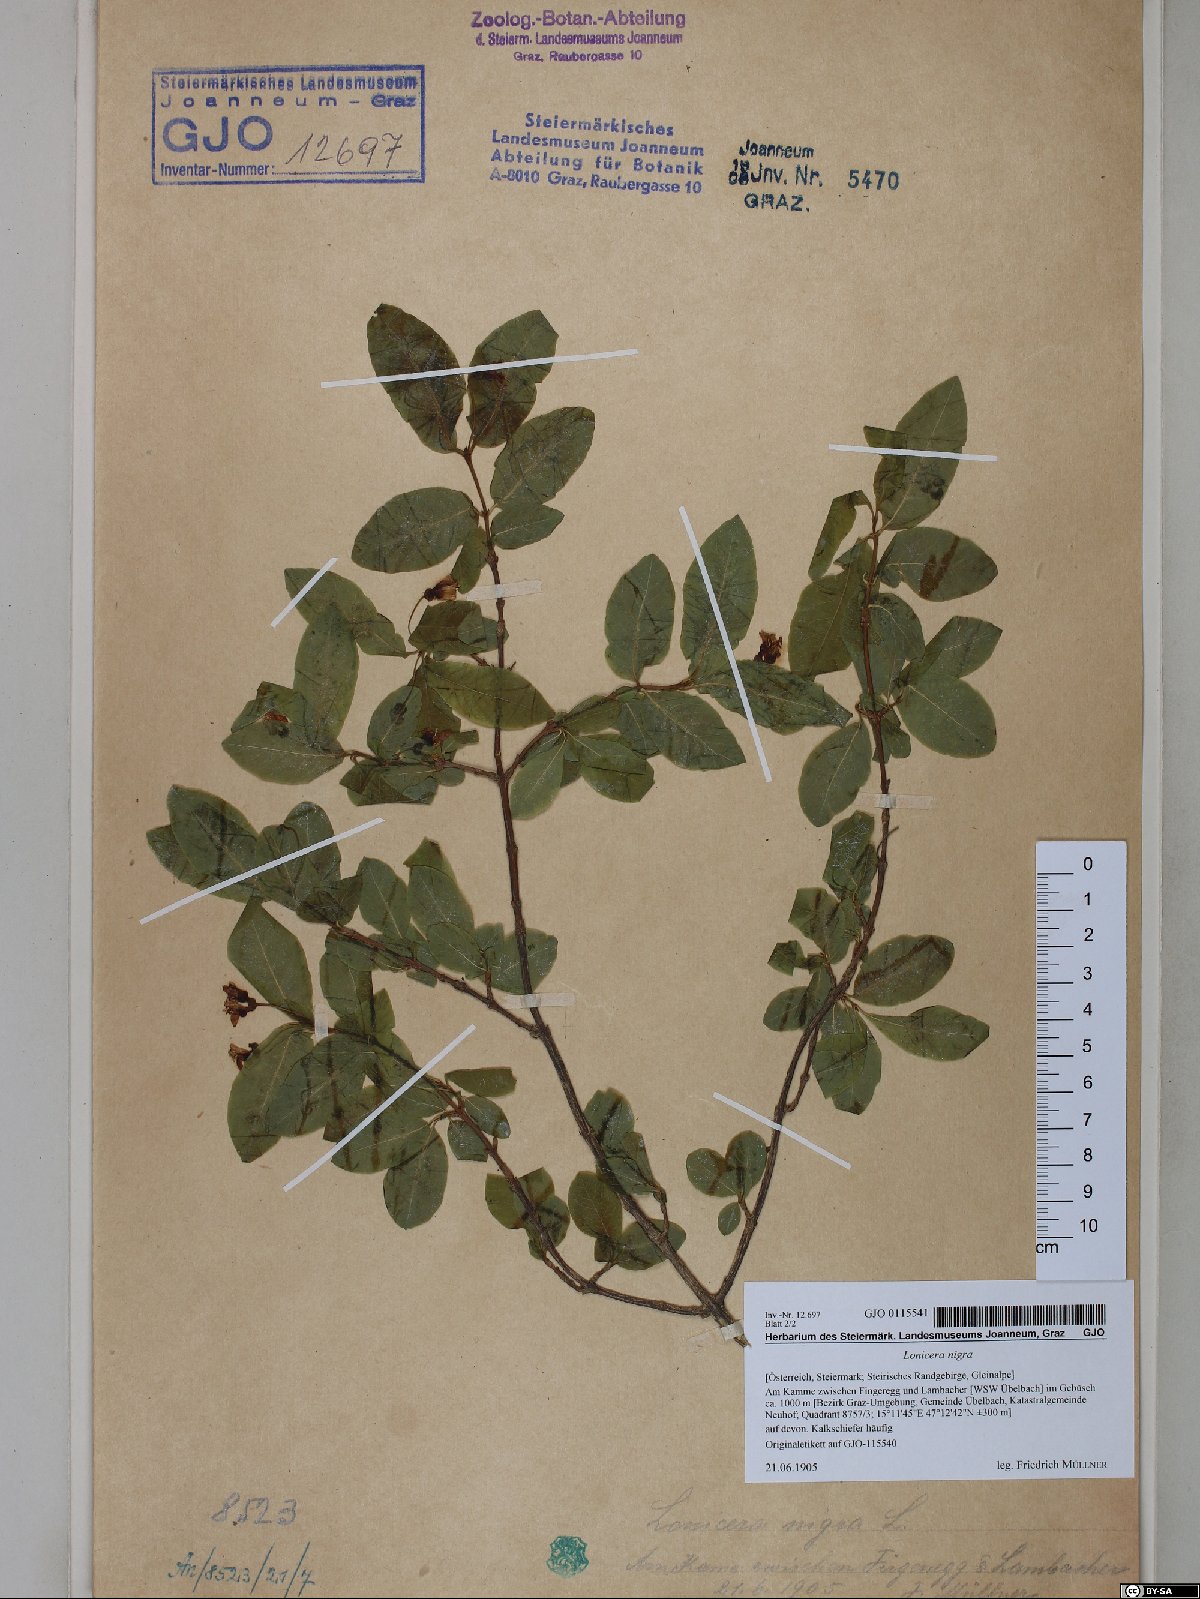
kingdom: Plantae
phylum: Tracheophyta
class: Magnoliopsida
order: Dipsacales
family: Caprifoliaceae
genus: Lonicera
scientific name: Lonicera nigra
